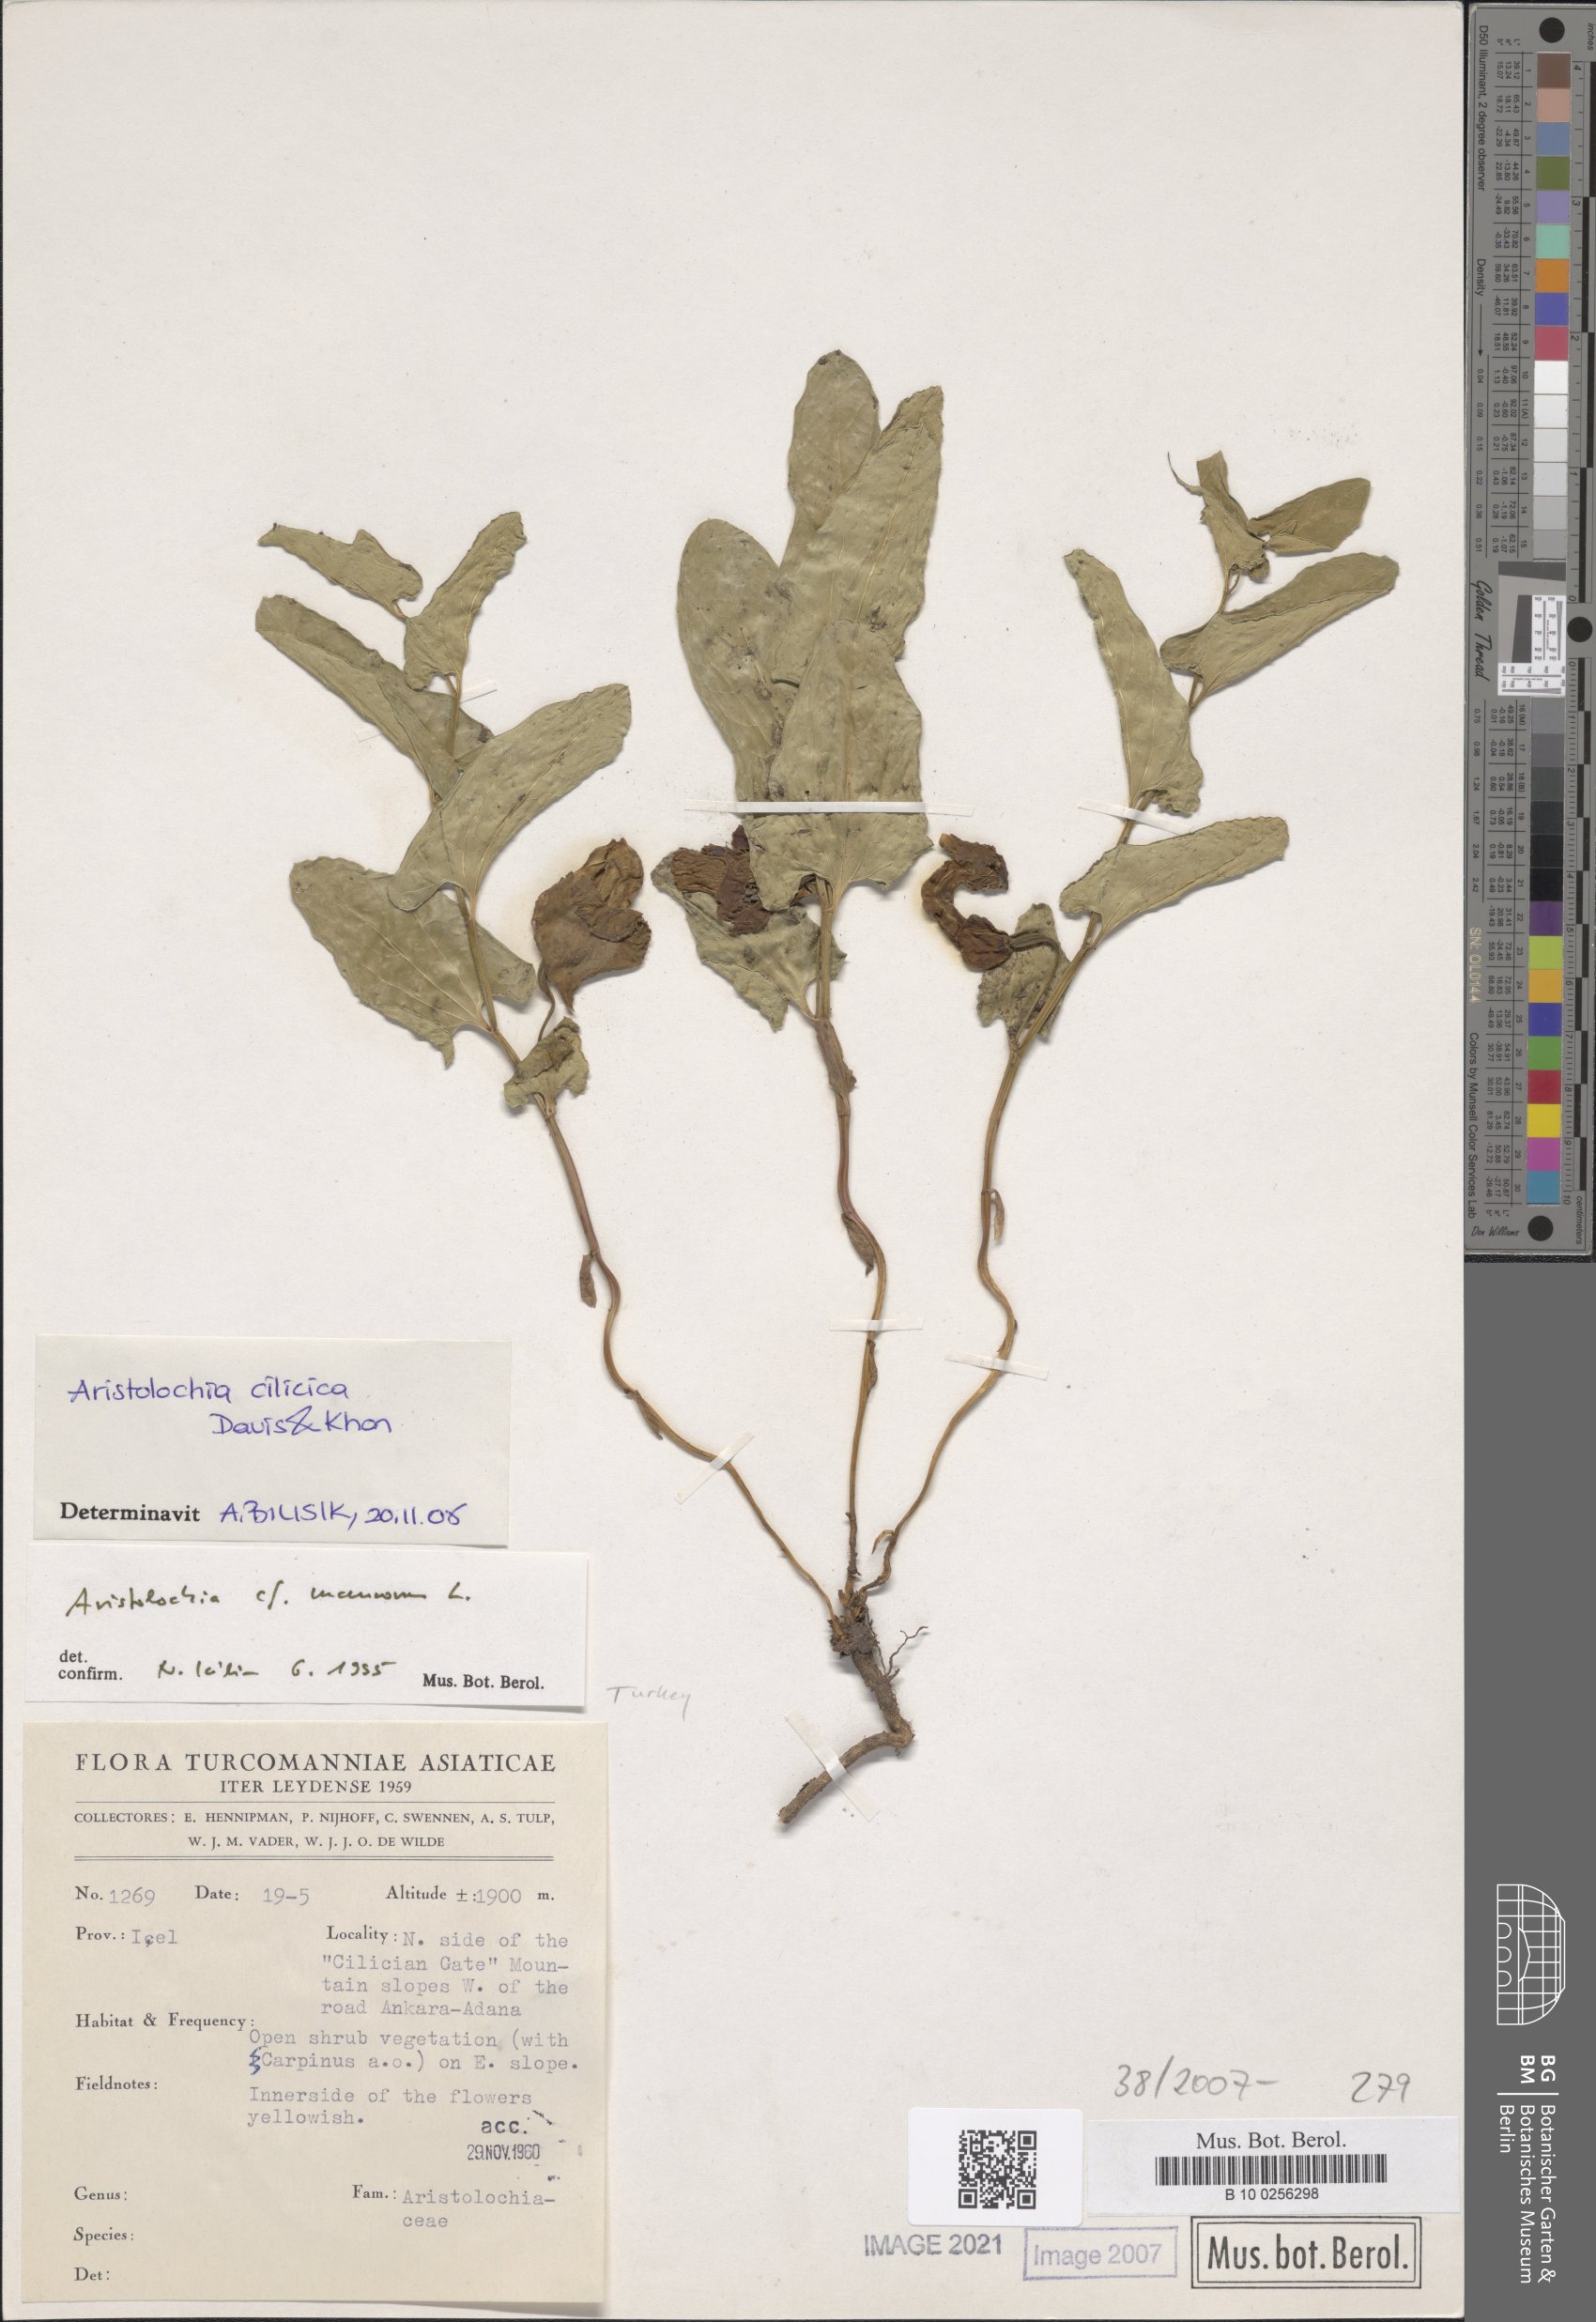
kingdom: Plantae
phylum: Tracheophyta
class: Magnoliopsida
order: Piperales
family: Aristolochiaceae
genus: Aristolochia
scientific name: Aristolochia cilicica
